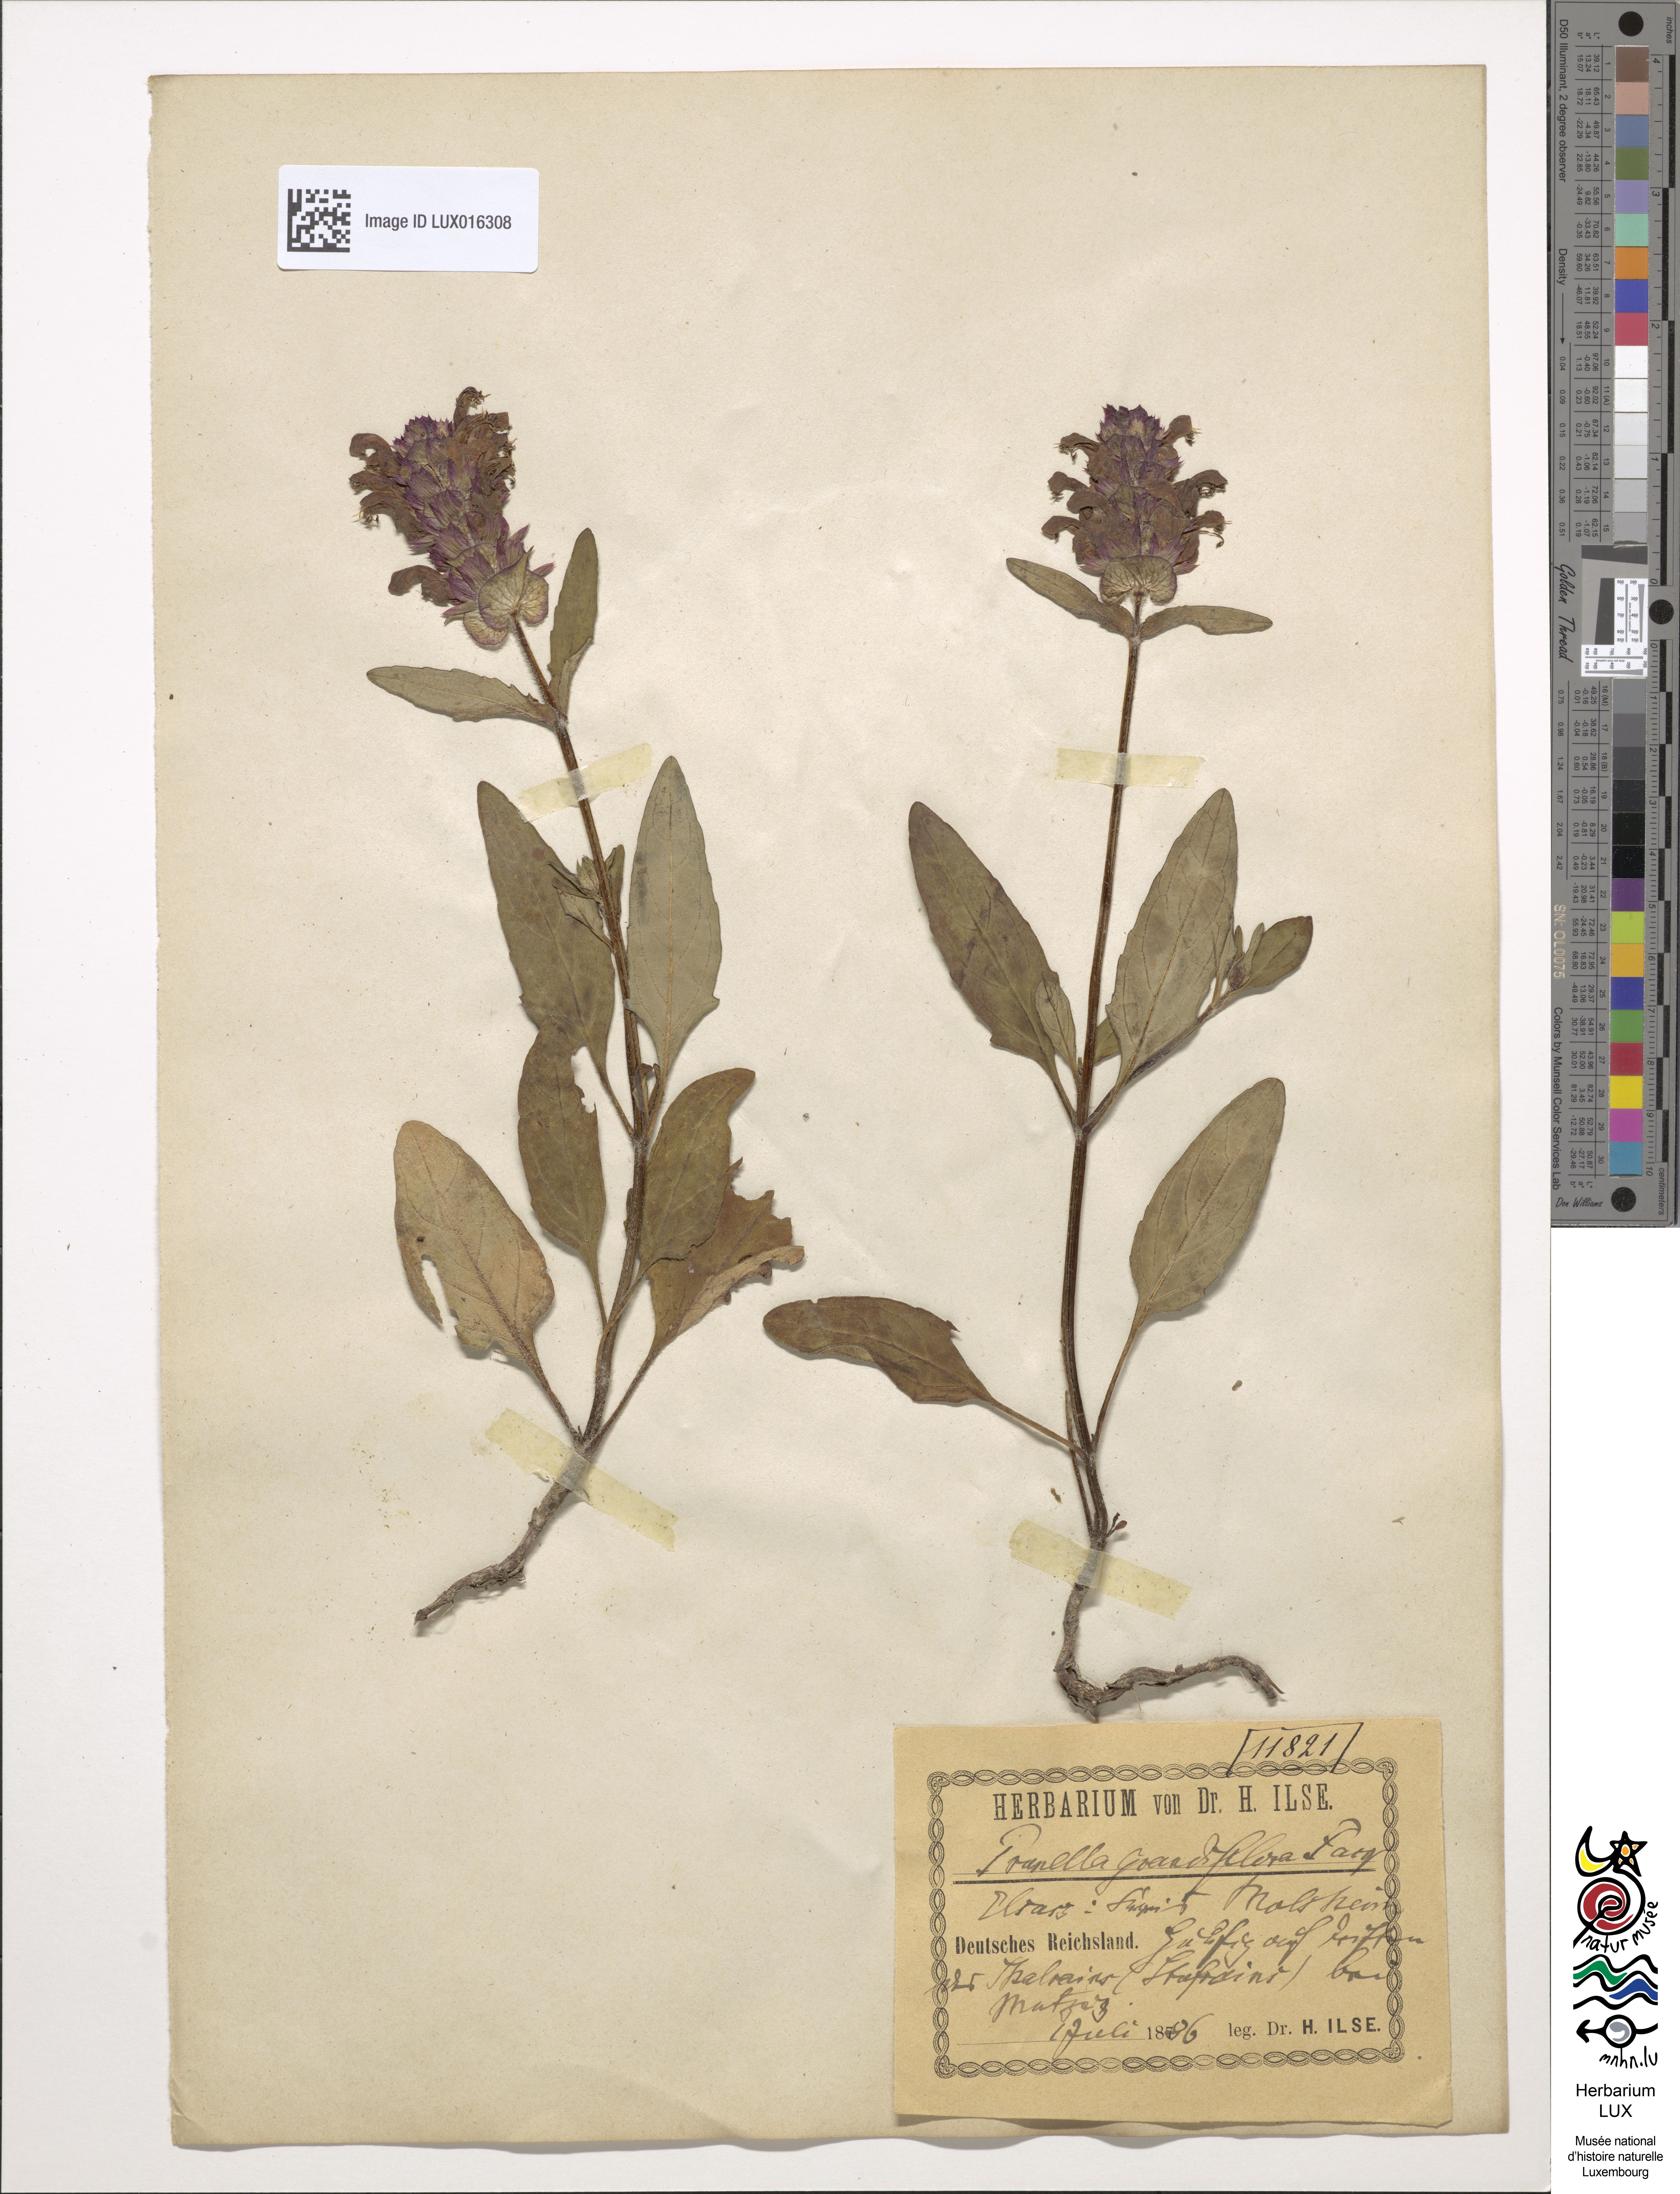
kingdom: Plantae
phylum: Tracheophyta
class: Magnoliopsida
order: Lamiales
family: Lamiaceae
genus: Prunella
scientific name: Prunella grandiflora
